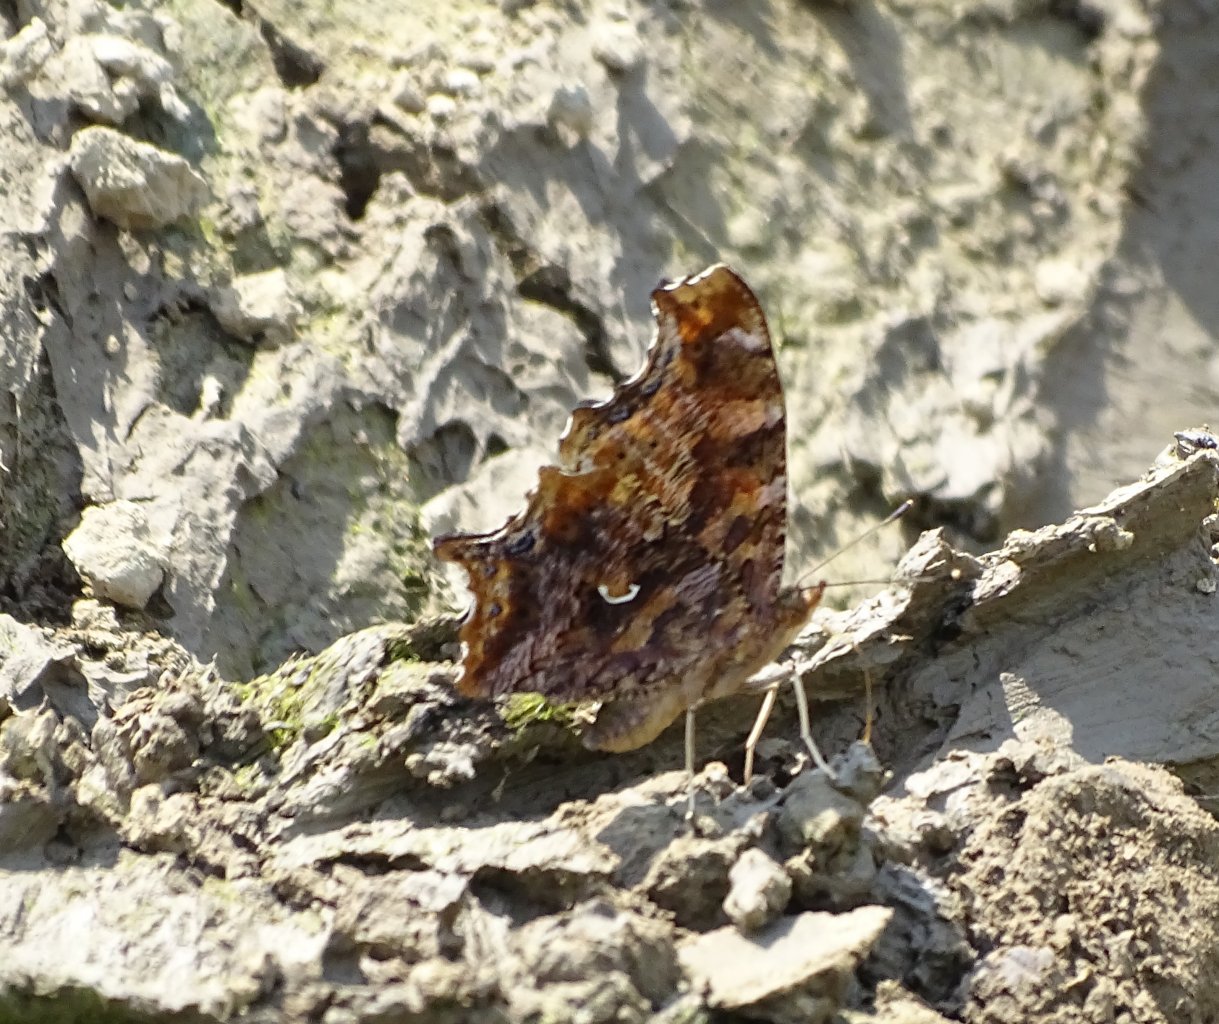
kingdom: Animalia
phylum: Arthropoda
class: Insecta
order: Lepidoptera
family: Nymphalidae
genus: Polygonia
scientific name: Polygonia comma
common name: Eastern Comma
